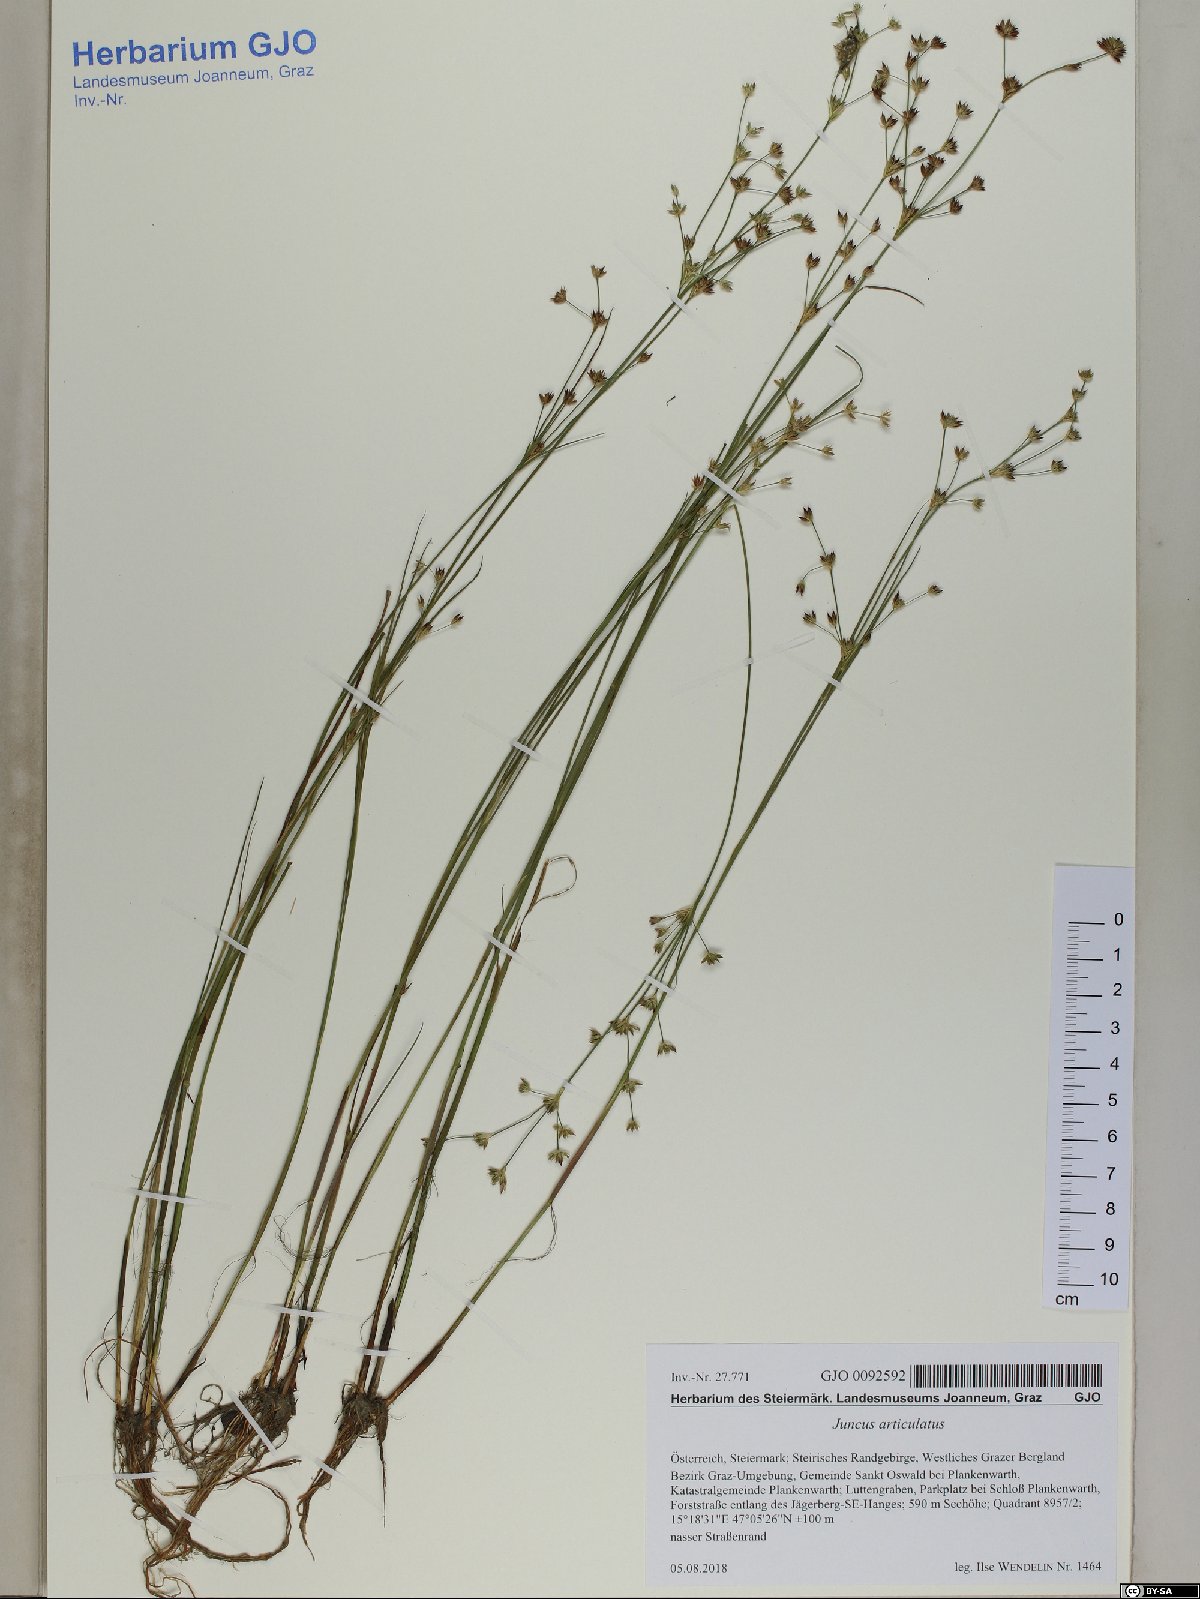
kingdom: Plantae
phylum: Tracheophyta
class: Liliopsida
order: Poales
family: Juncaceae
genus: Juncus
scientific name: Juncus articulatus
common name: Jointed rush
